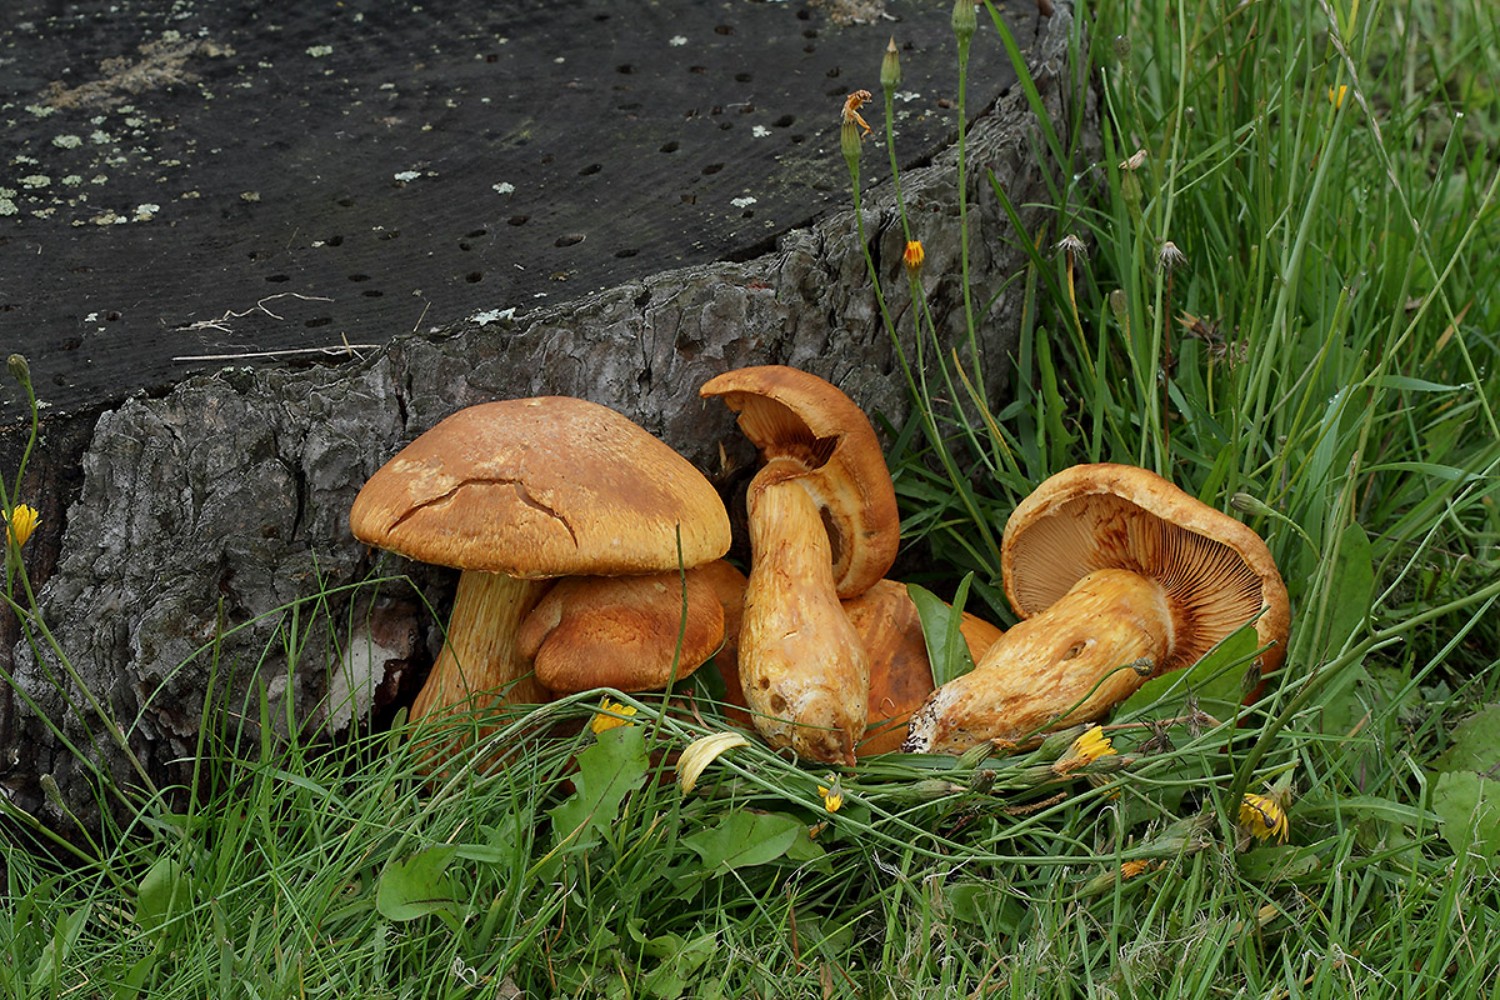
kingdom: Fungi
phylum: Basidiomycota
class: Agaricomycetes
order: Agaricales
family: Hymenogastraceae
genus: Gymnopilus
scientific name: Gymnopilus spectabilis
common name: fibret flammehat
